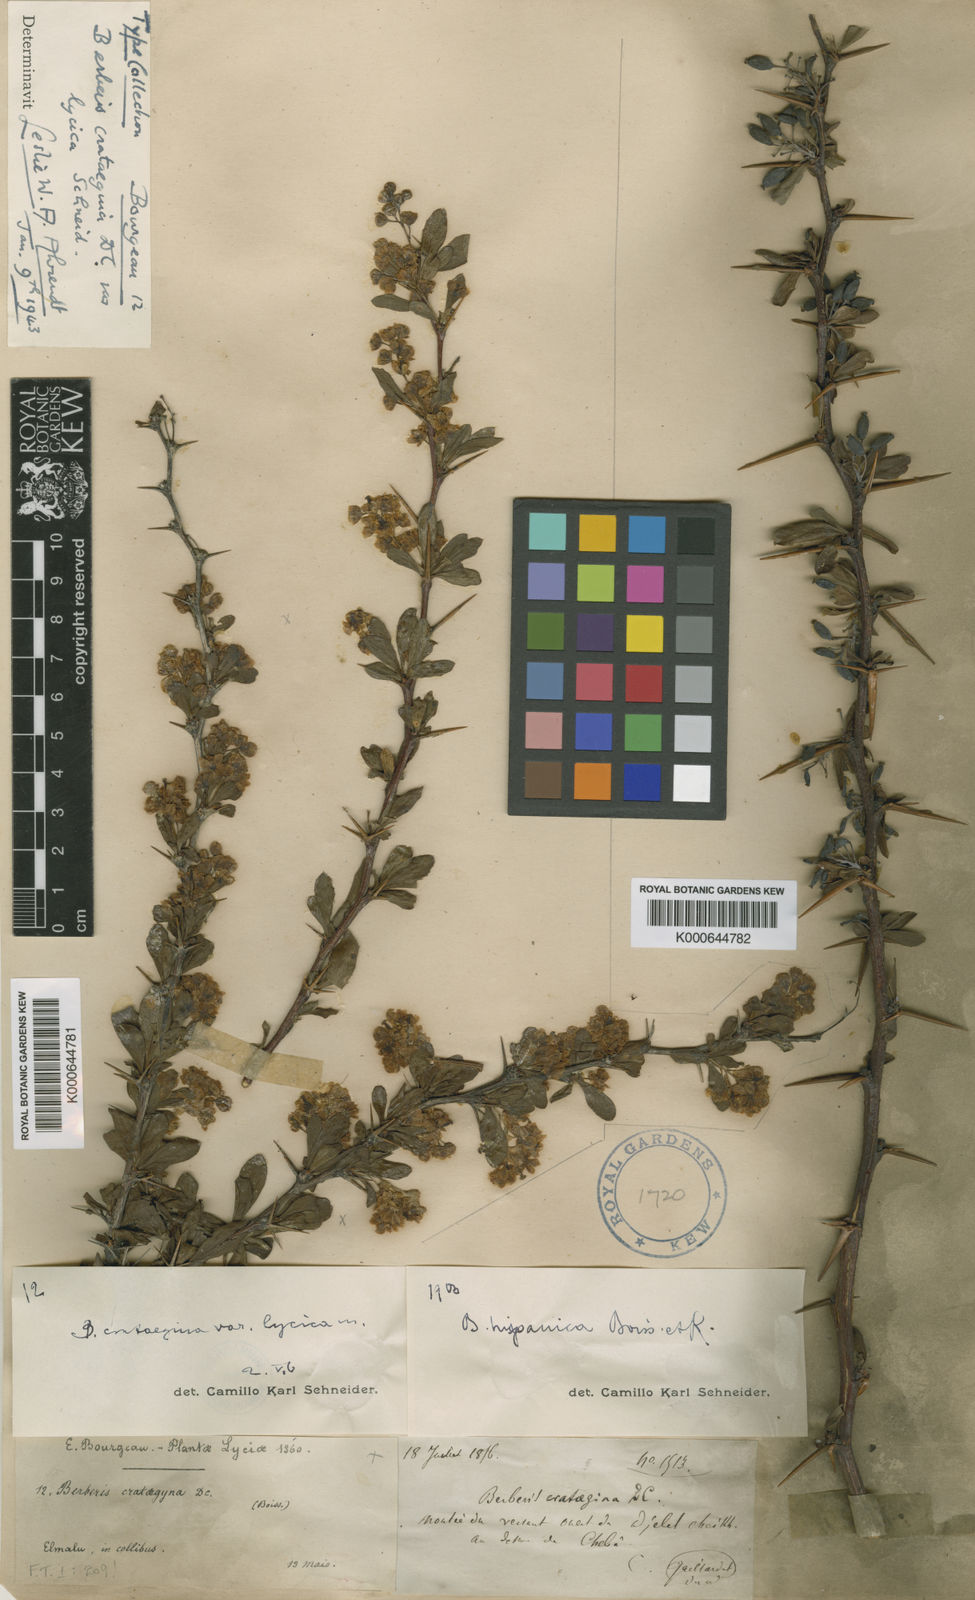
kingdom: Plantae
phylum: Tracheophyta
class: Magnoliopsida
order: Ranunculales
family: Berberidaceae
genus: Berberis
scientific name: Berberis crataegina
